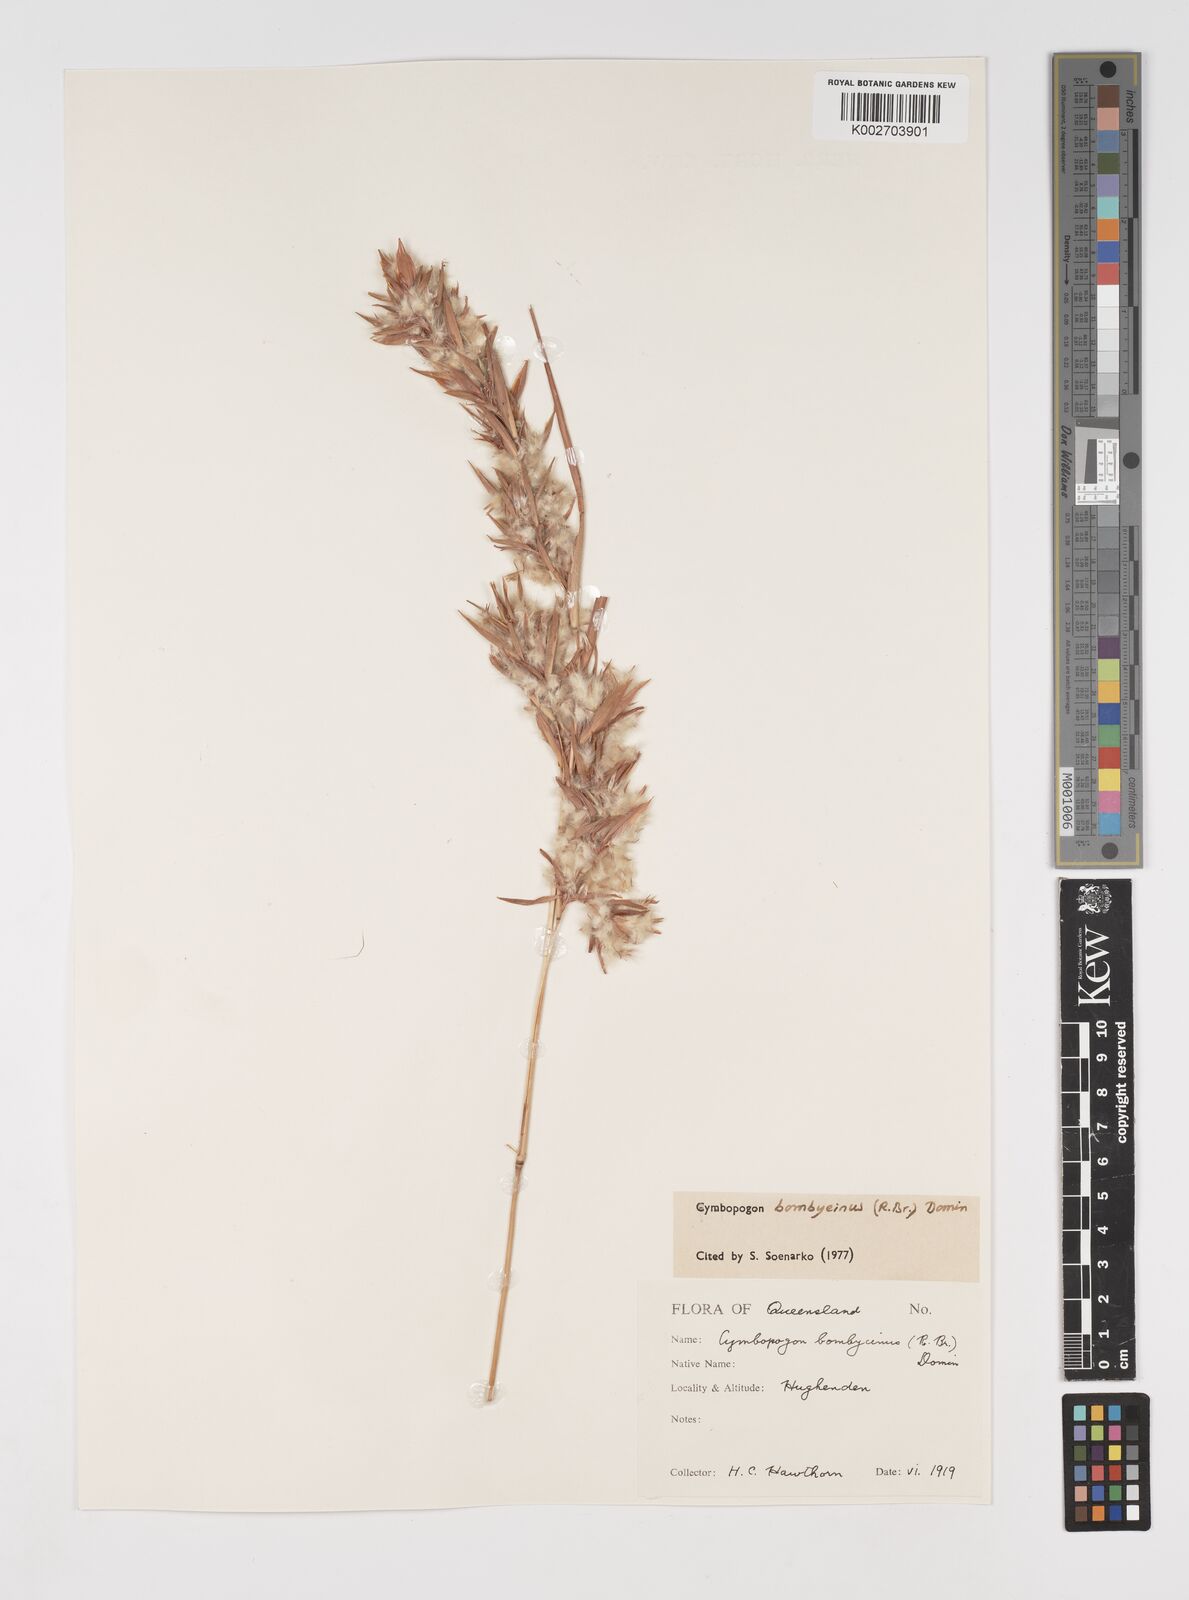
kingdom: Plantae
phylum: Tracheophyta
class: Liliopsida
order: Poales
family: Poaceae
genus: Cymbopogon
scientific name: Cymbopogon bombycinus
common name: Citronella grass
